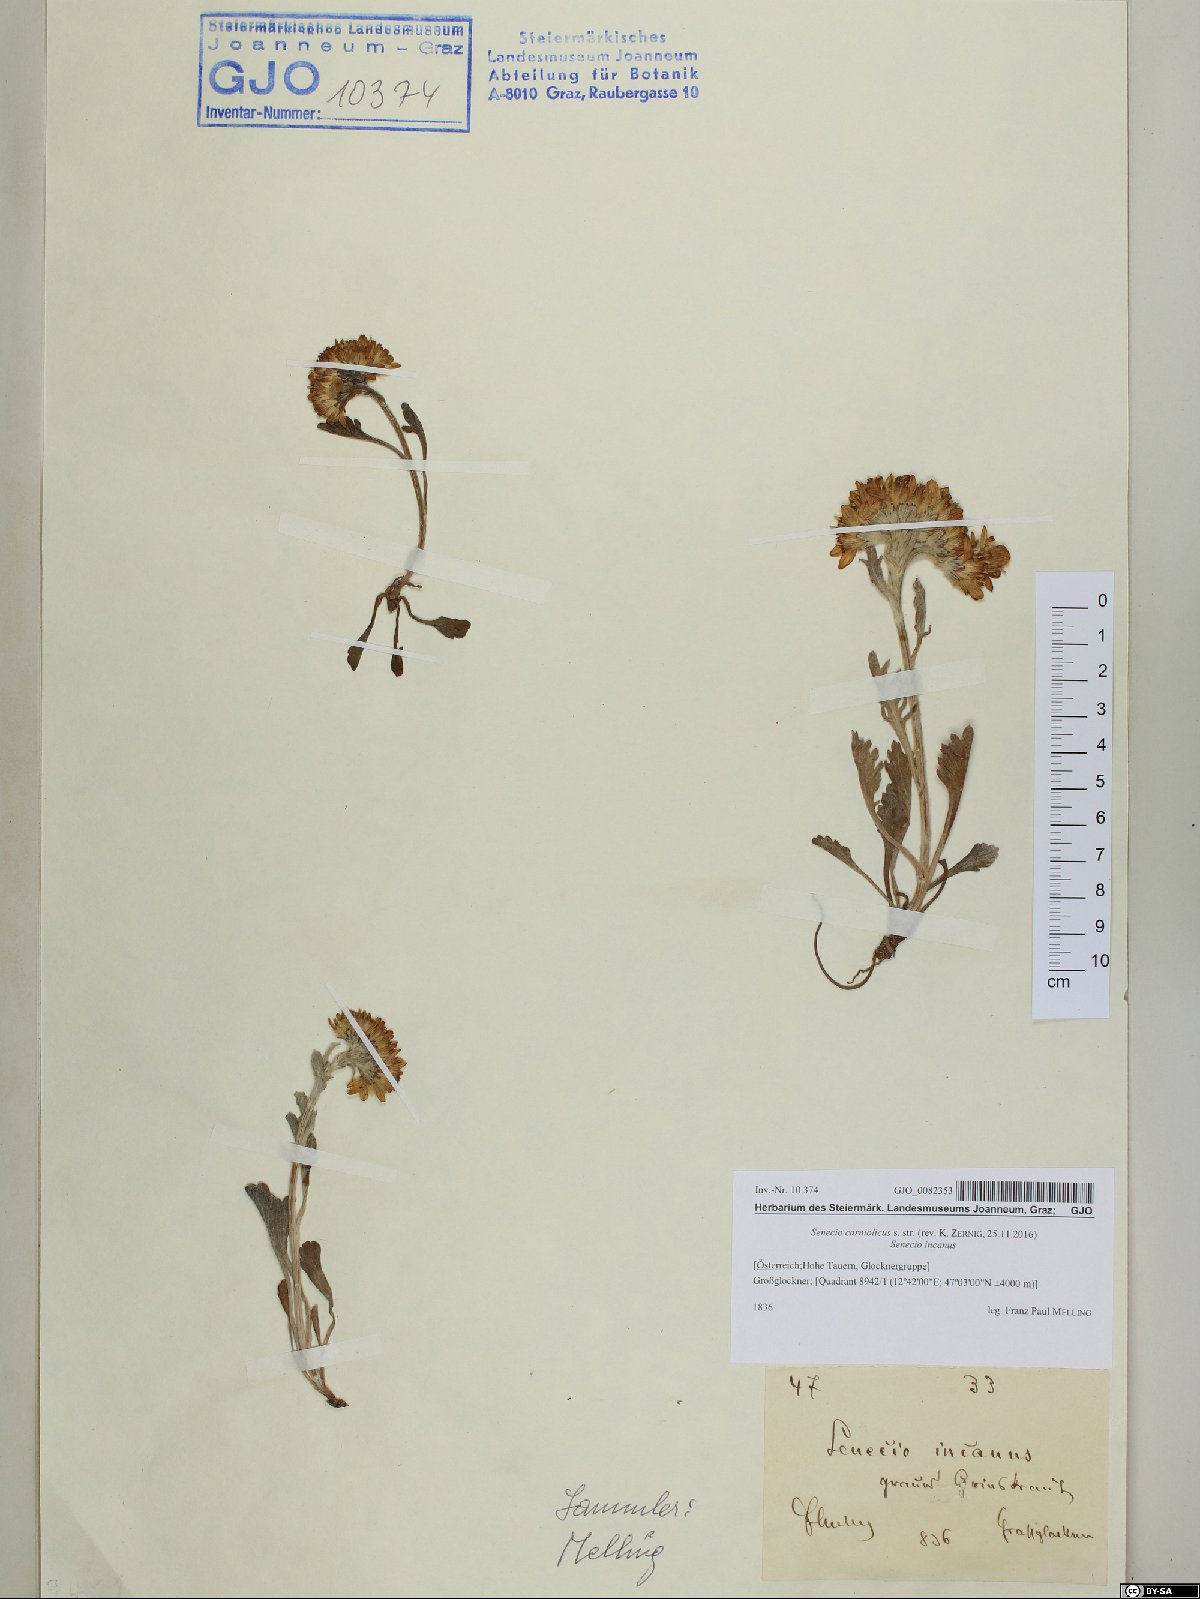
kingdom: Plantae
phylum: Tracheophyta
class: Magnoliopsida
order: Asterales
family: Asteraceae
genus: Jacobaea
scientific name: Jacobaea carniolica
